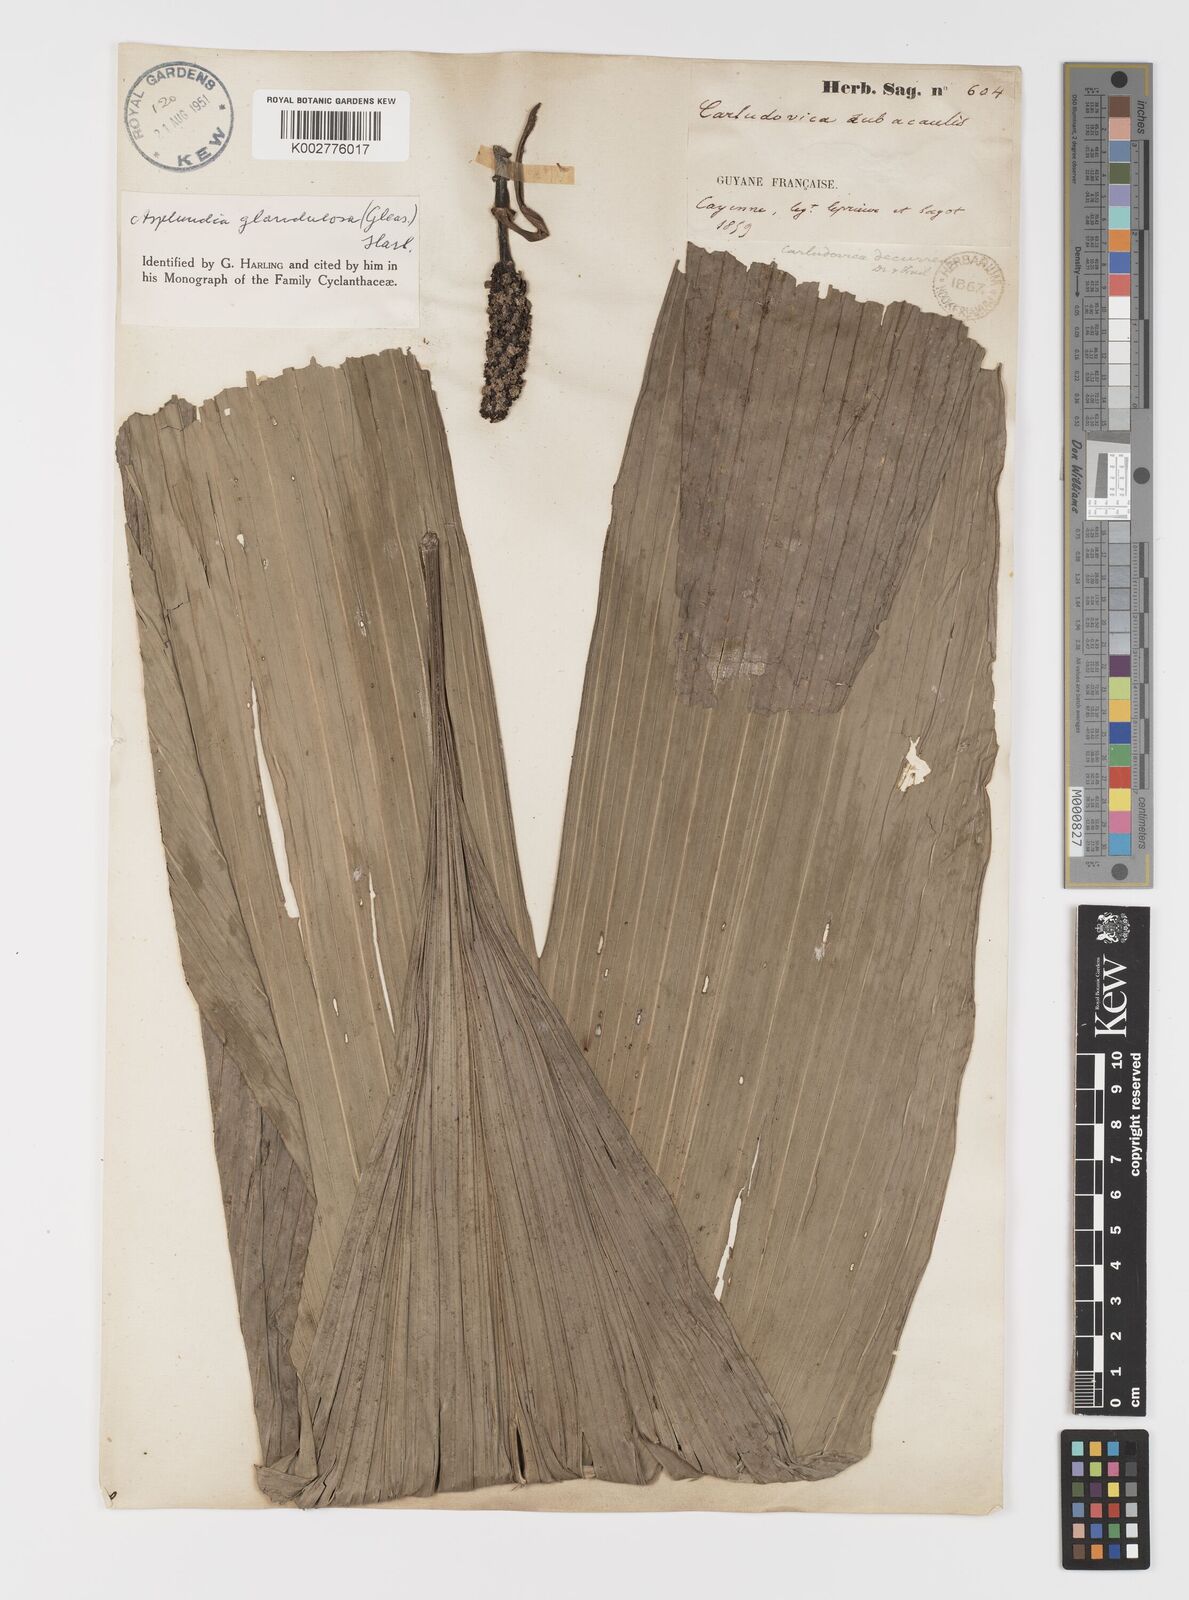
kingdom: Plantae
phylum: Tracheophyta
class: Liliopsida
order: Pandanales
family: Cyclanthaceae
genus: Asplundia
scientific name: Asplundia glandulosa
